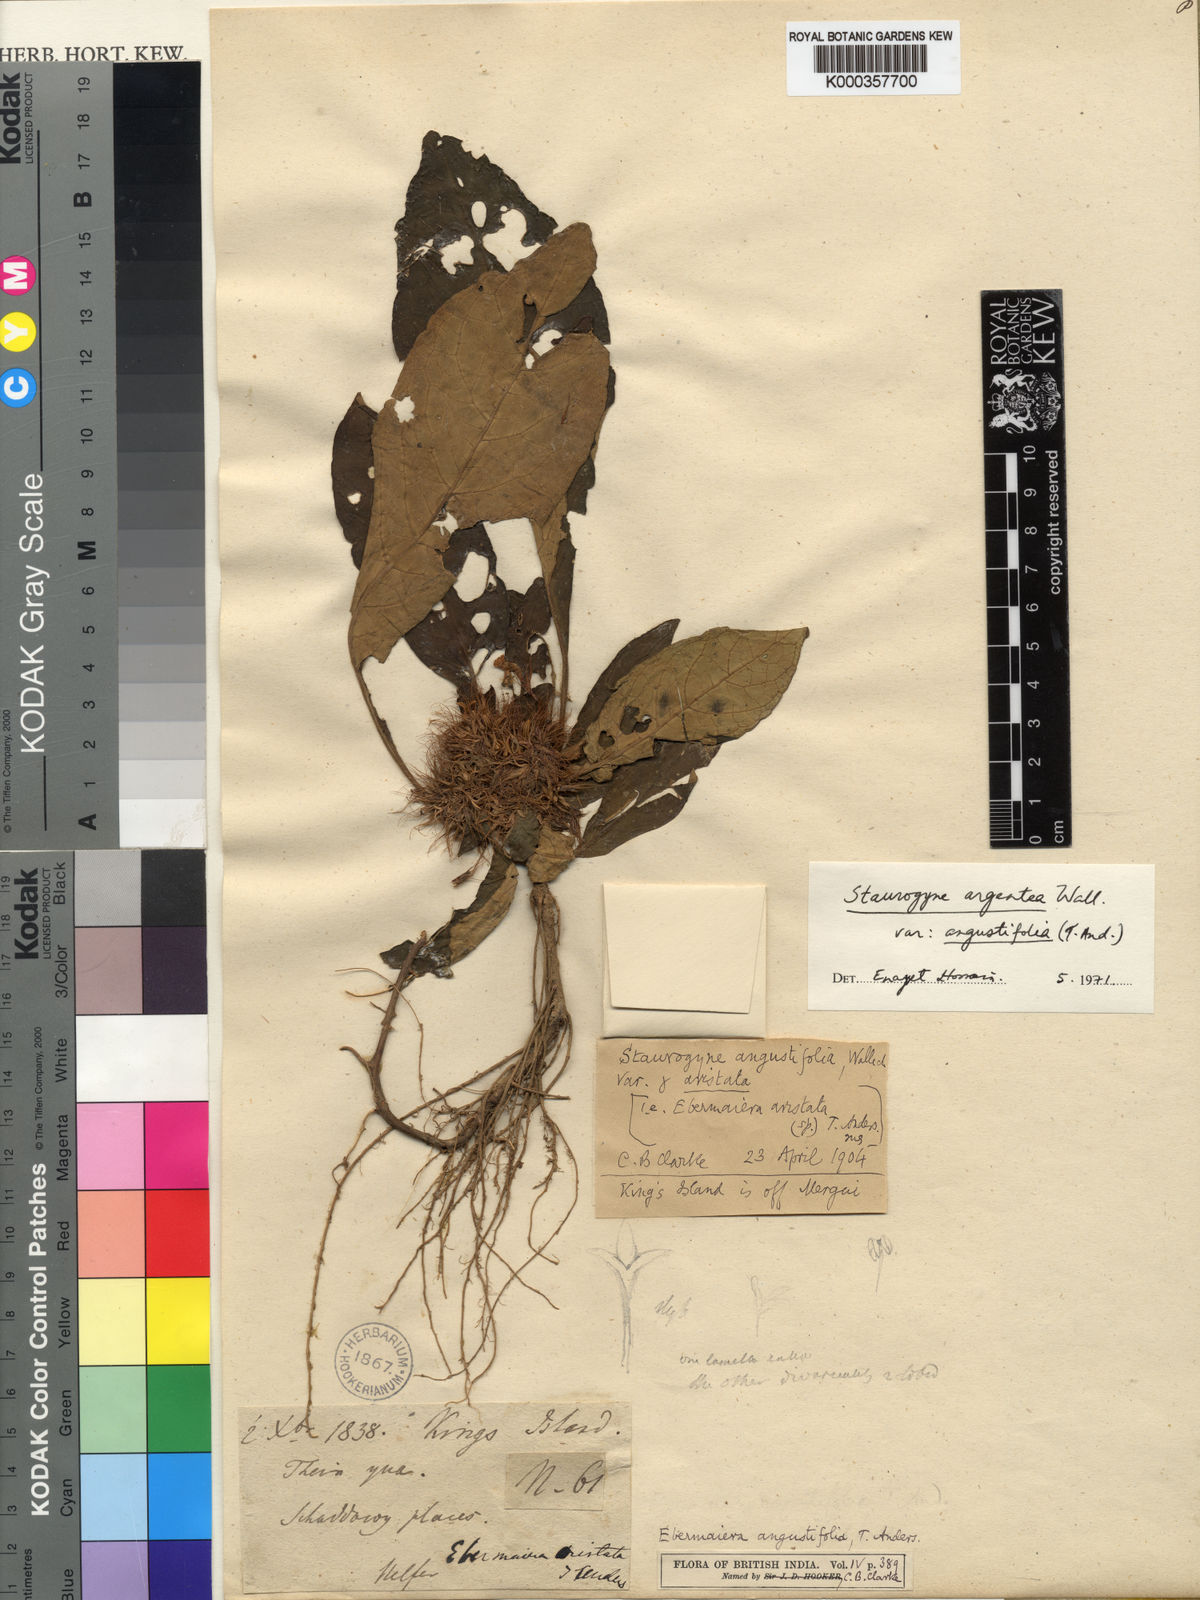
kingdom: Plantae
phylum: Tracheophyta
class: Magnoliopsida
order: Lamiales
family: Acanthaceae
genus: Staurogyne
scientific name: Staurogyne argentea
